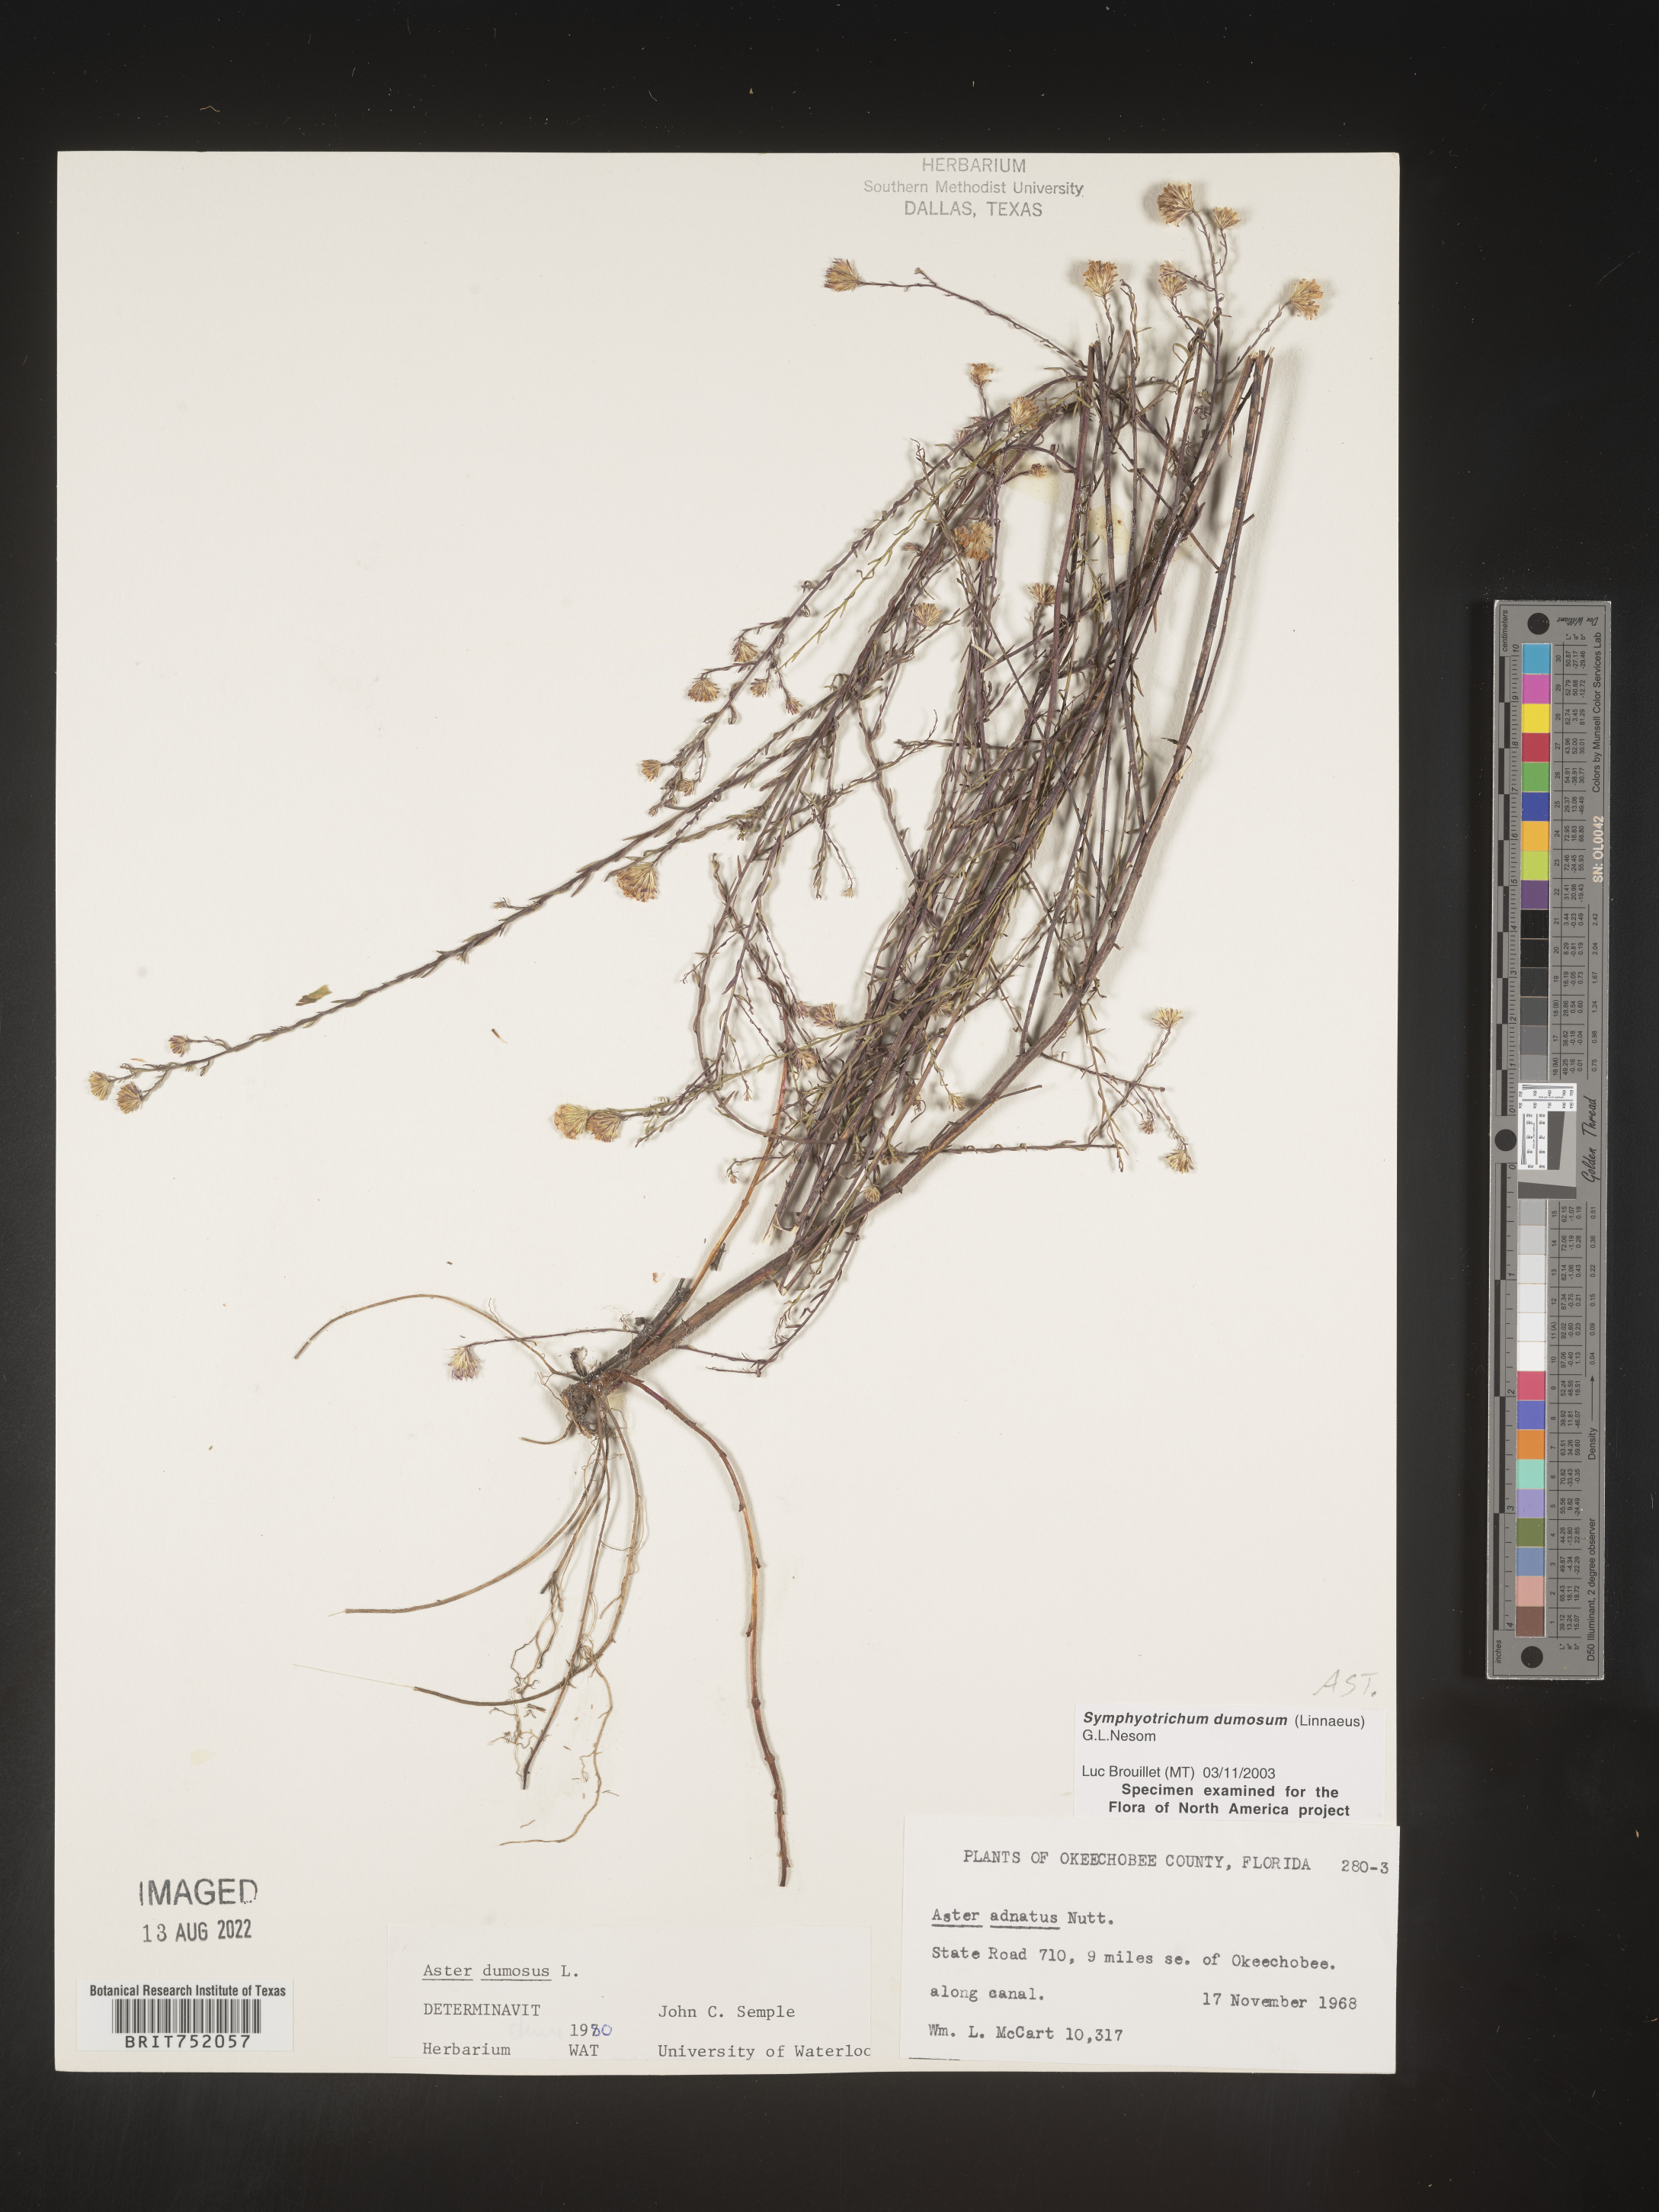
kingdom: Plantae
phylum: Tracheophyta
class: Magnoliopsida
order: Asterales
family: Asteraceae
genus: Symphyotrichum
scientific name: Symphyotrichum dumosum
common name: Bushy aster
